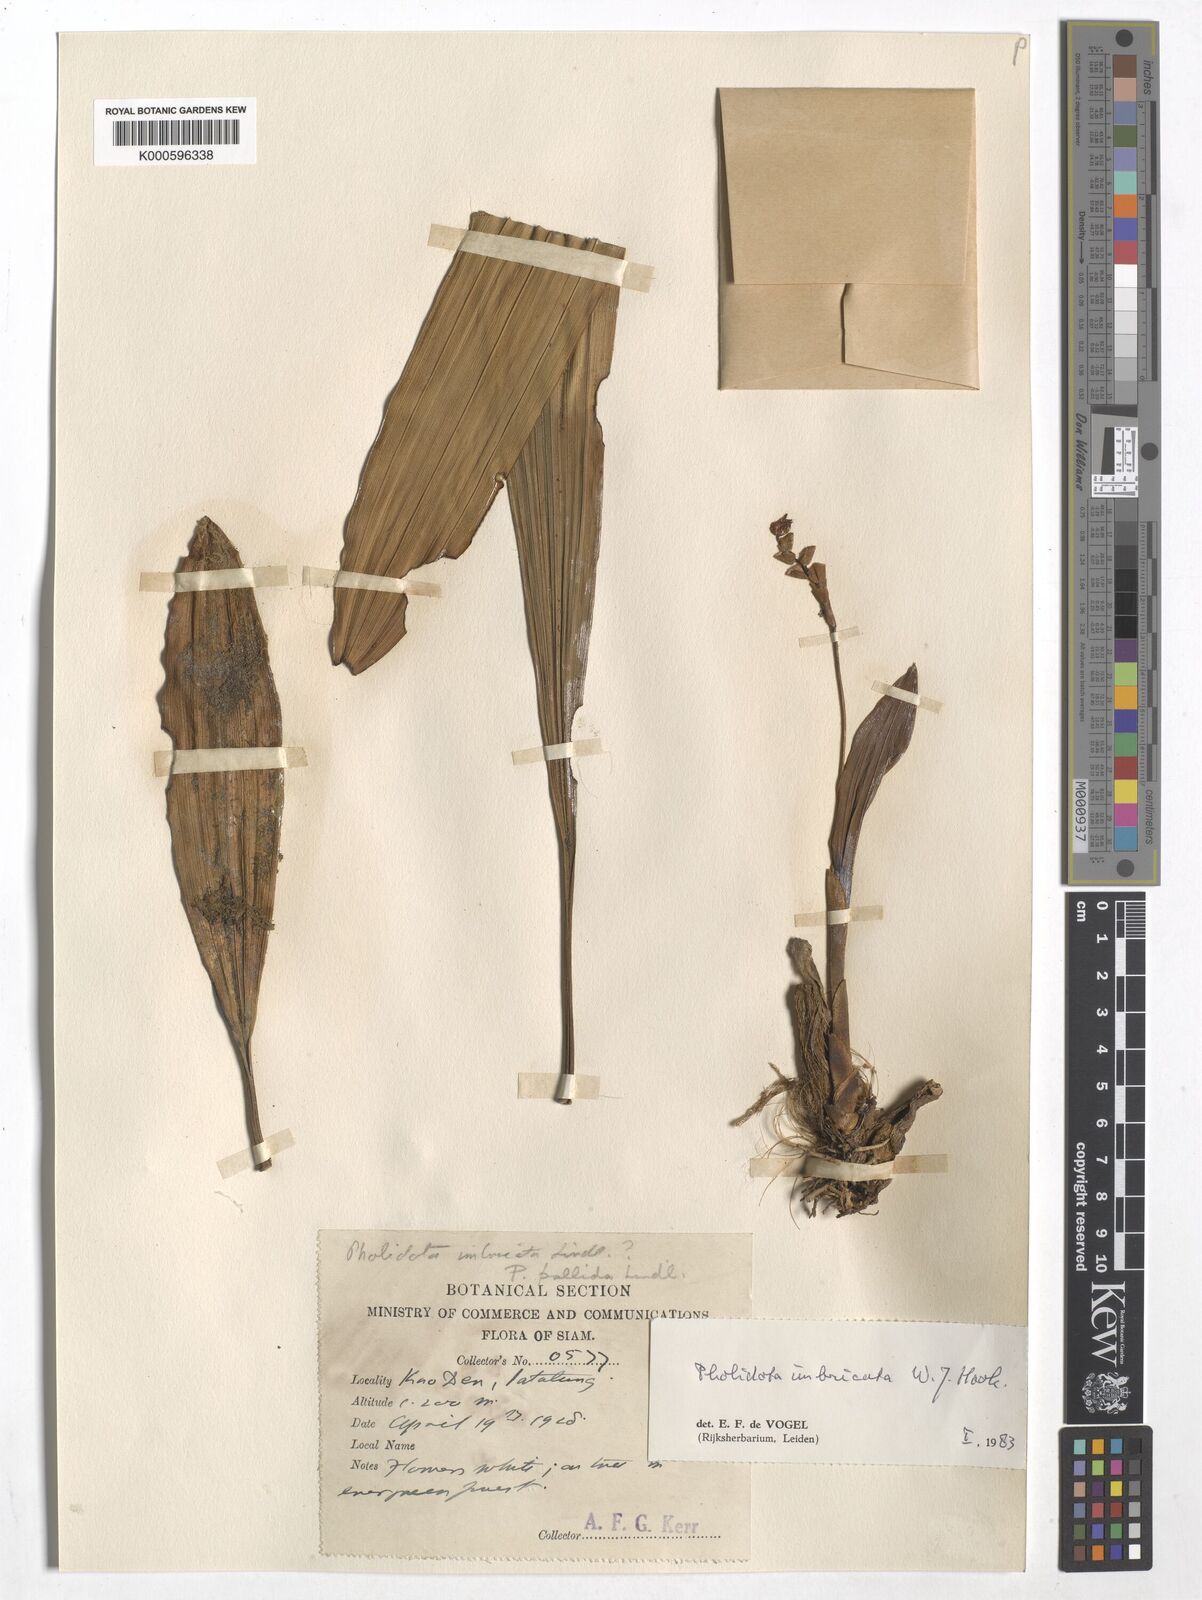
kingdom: Plantae
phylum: Tracheophyta
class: Liliopsida
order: Asparagales
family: Orchidaceae
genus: Coelogyne
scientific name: Coelogyne imbricata
